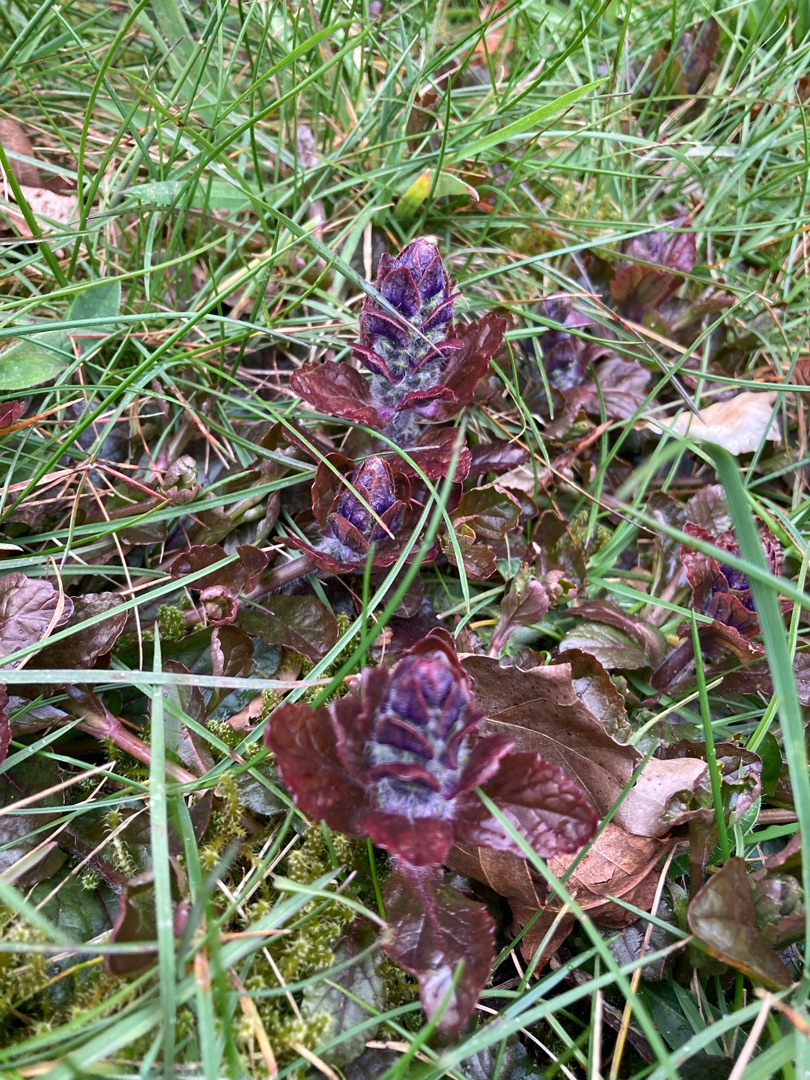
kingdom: Plantae
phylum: Tracheophyta
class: Magnoliopsida
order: Lamiales
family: Lamiaceae
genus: Ajuga
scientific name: Ajuga reptans
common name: Krybende læbeløs
